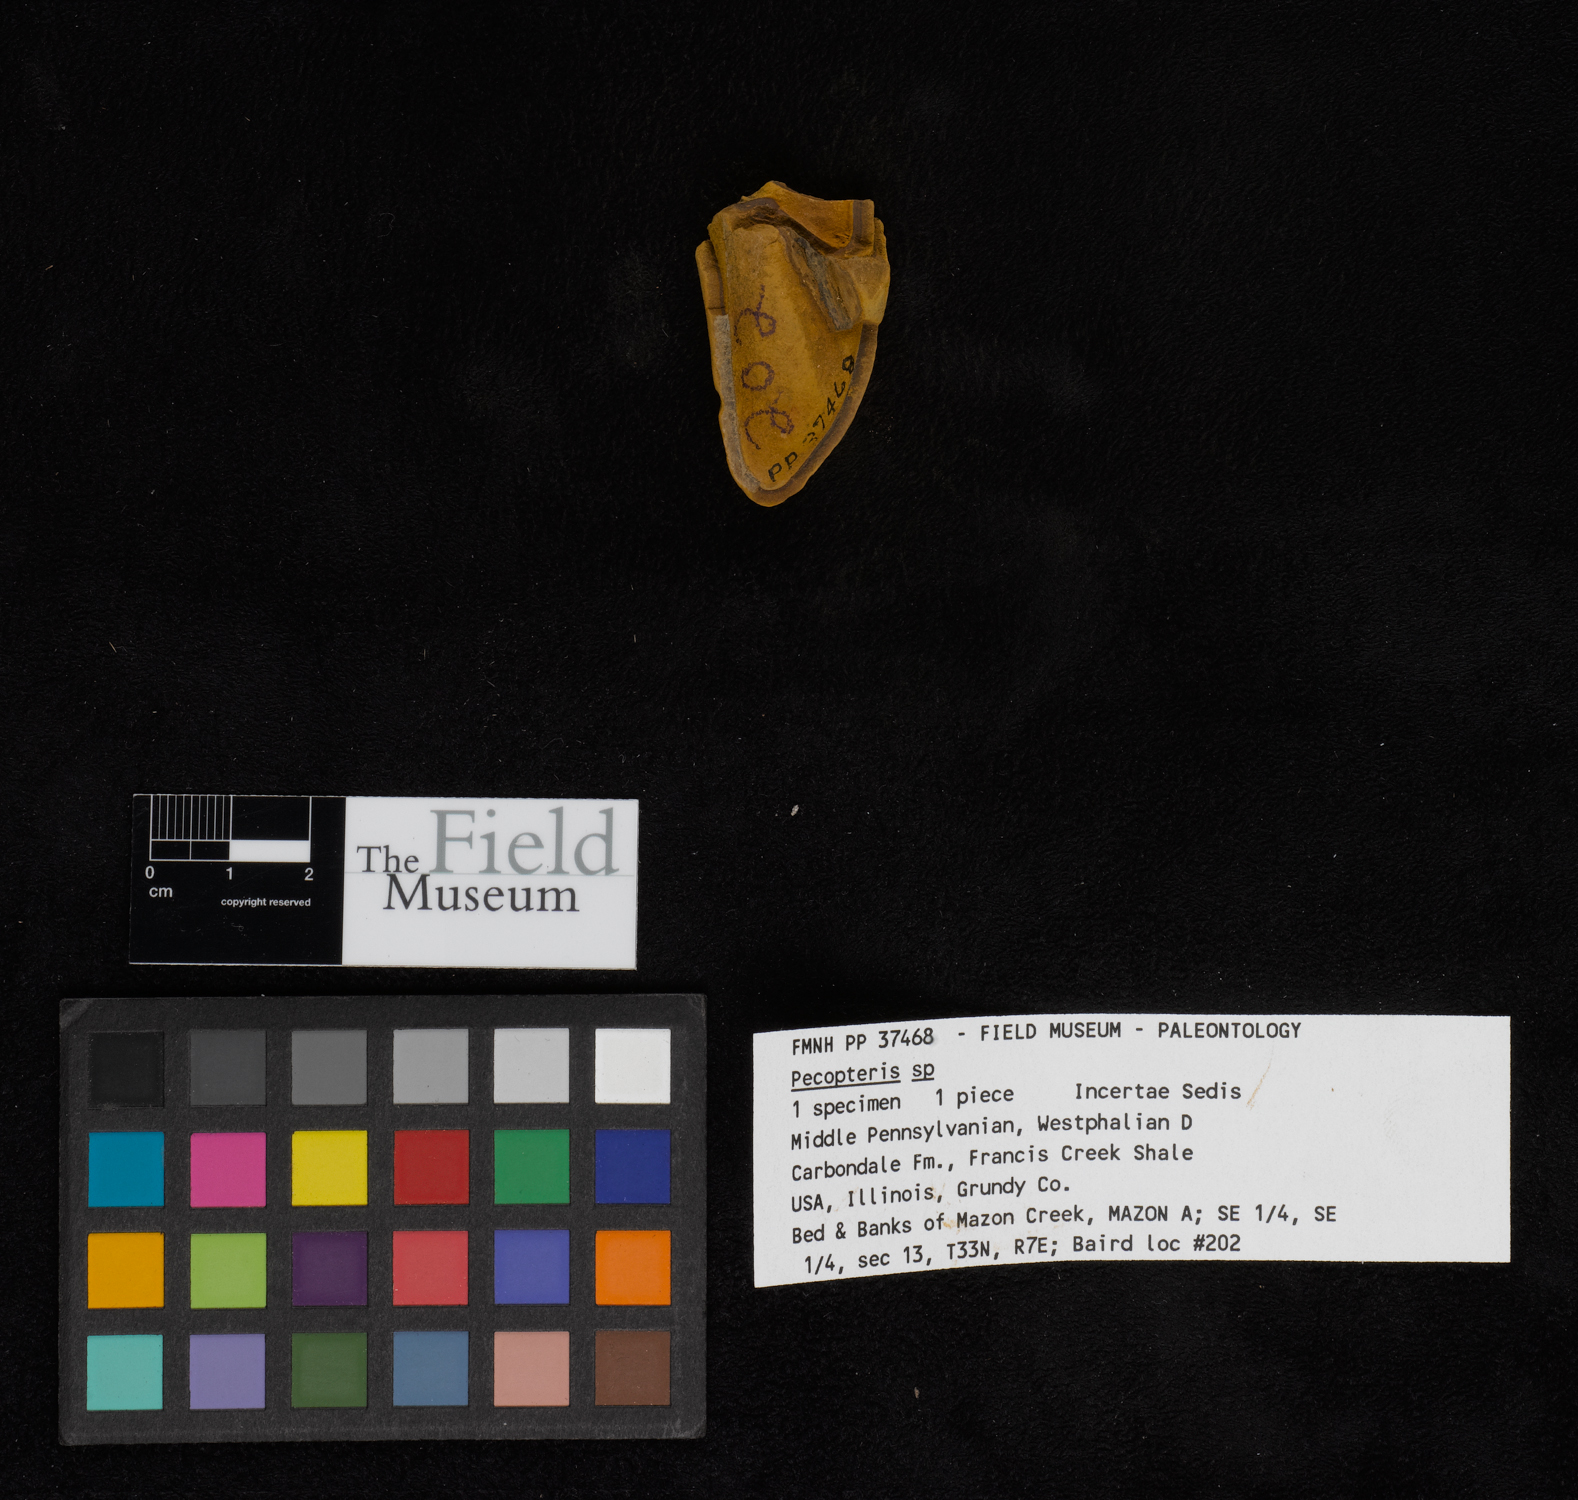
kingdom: Plantae
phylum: Tracheophyta
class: Polypodiopsida
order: Marattiales
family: Asterothecaceae
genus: Pecopteris
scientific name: Pecopteris
